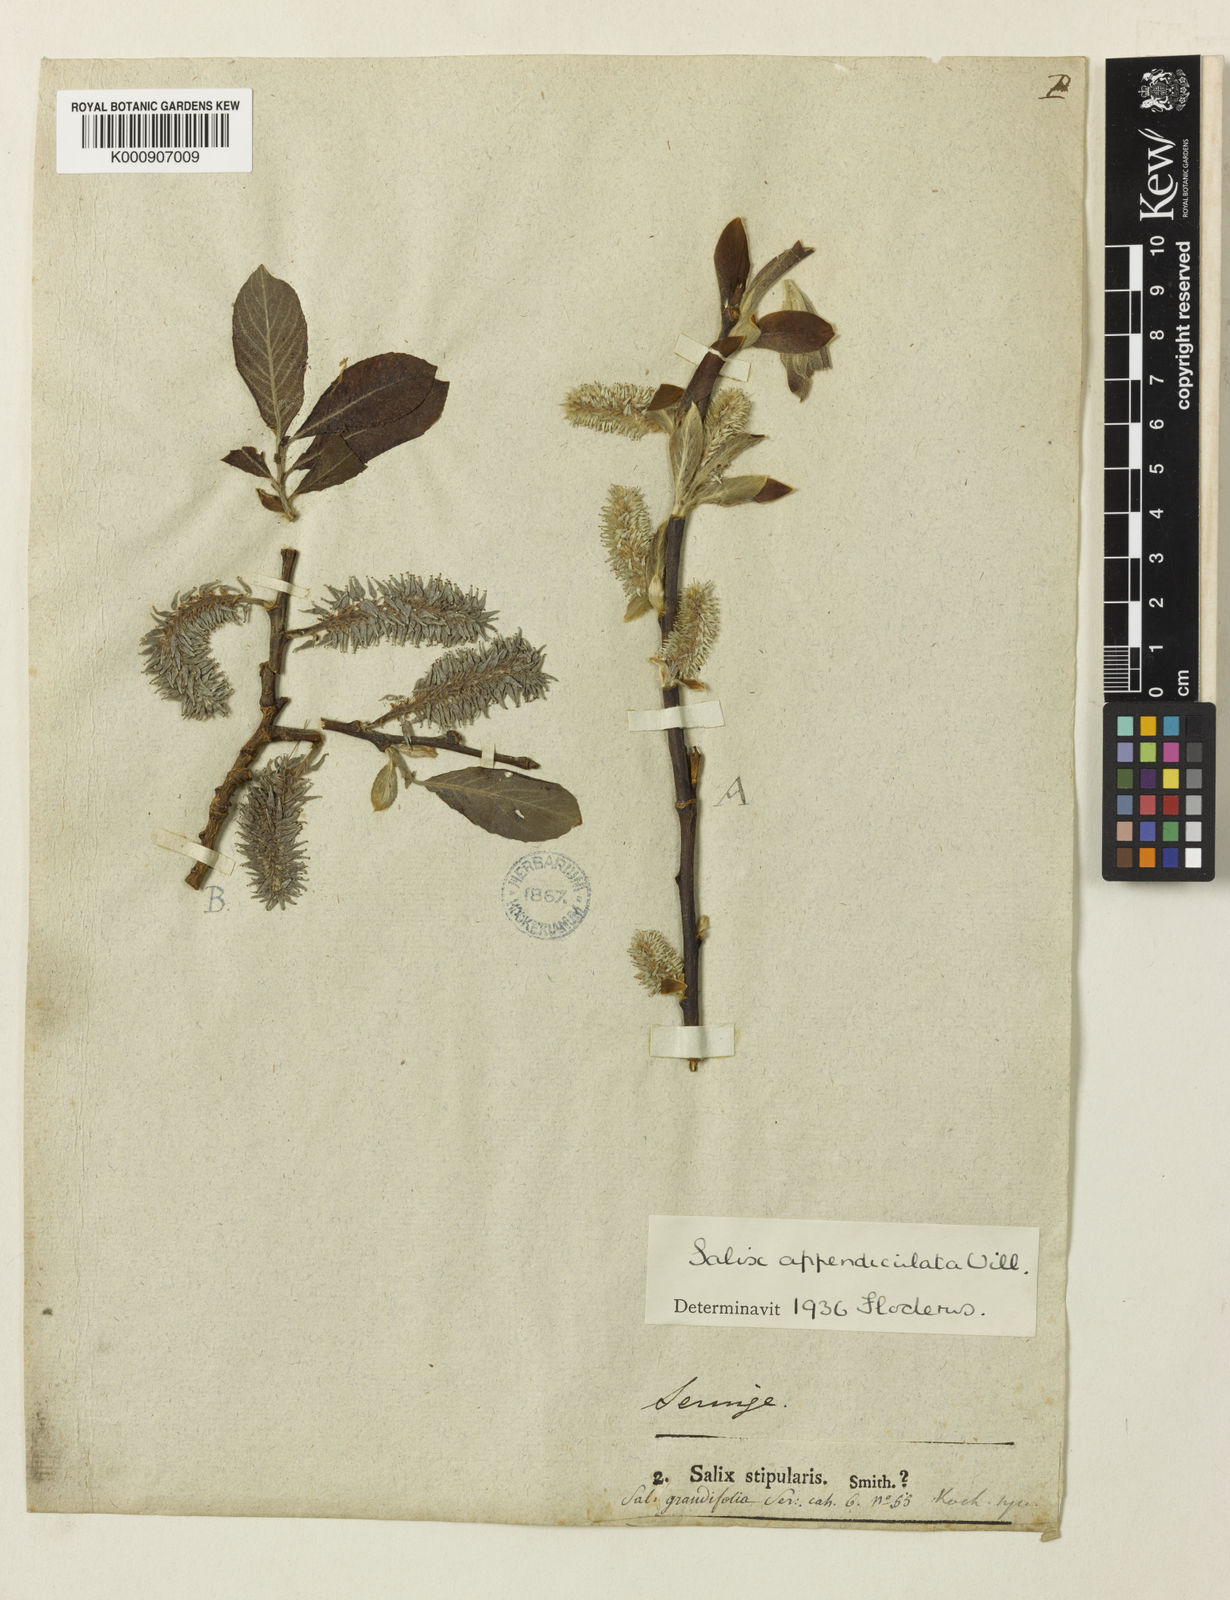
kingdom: Plantae
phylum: Tracheophyta
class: Magnoliopsida
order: Malpighiales
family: Salicaceae
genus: Salix
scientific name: Salix aurita
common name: Eared willow
